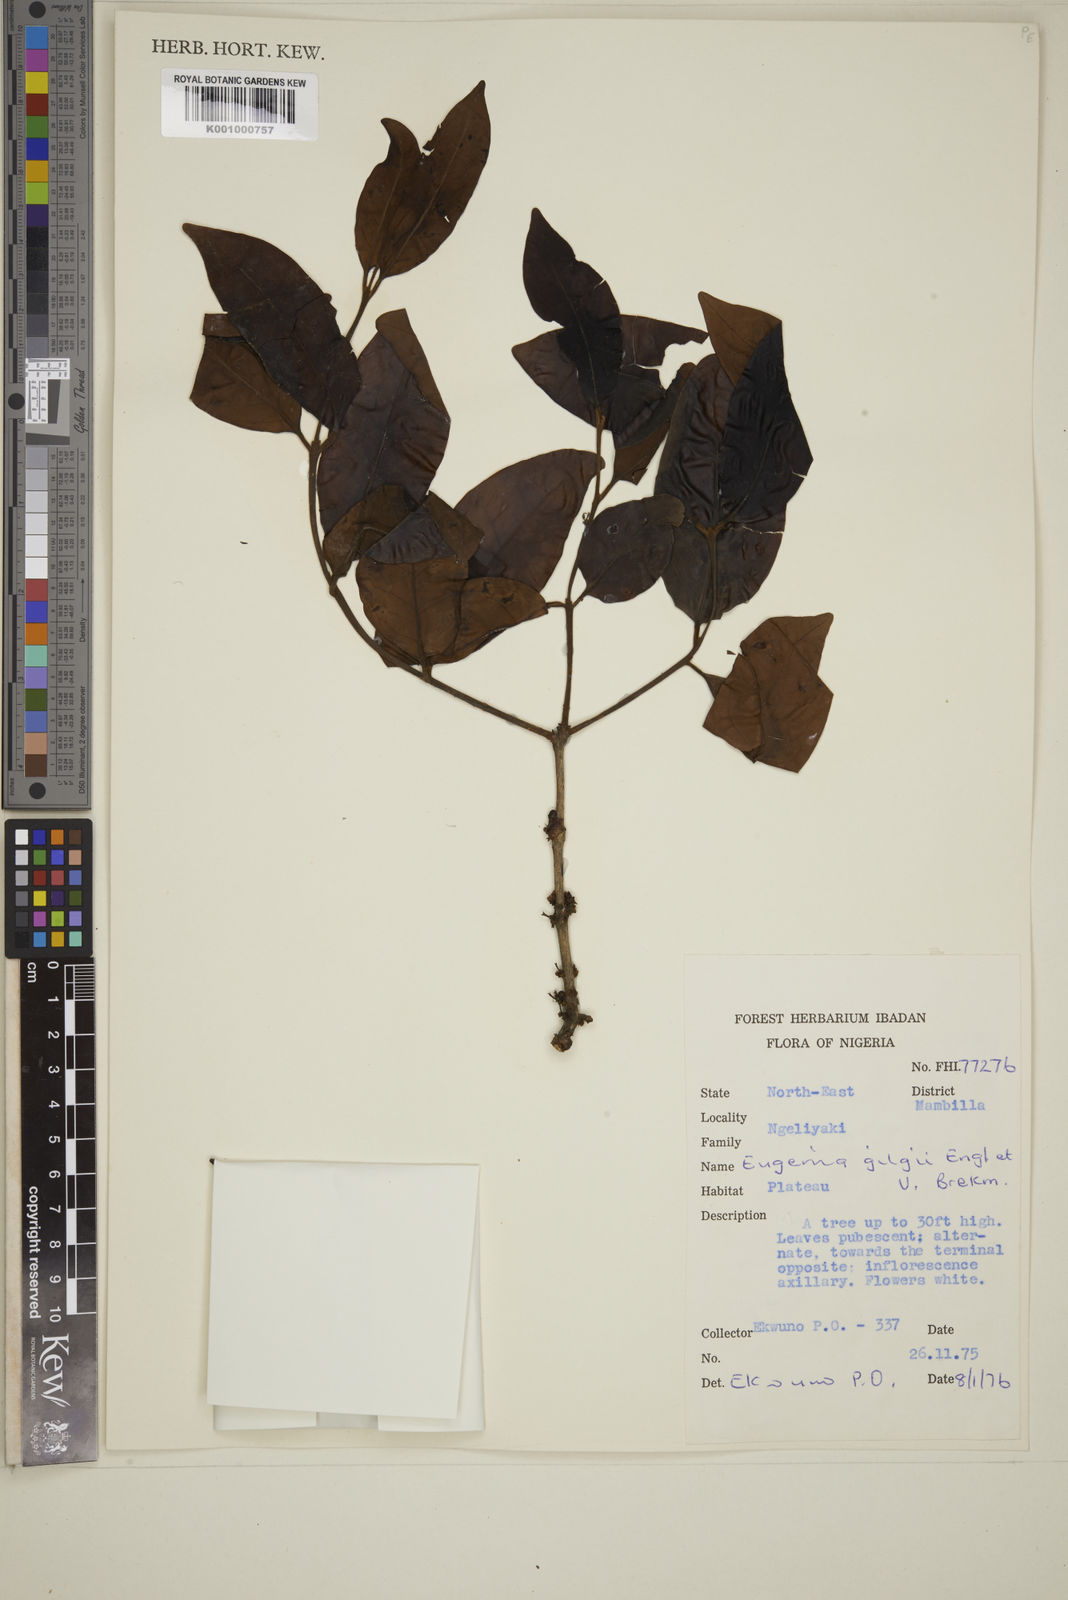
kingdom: Plantae
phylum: Tracheophyta
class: Magnoliopsida
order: Myrtales
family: Myrtaceae
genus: Eugenia
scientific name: Eugenia gilgii
